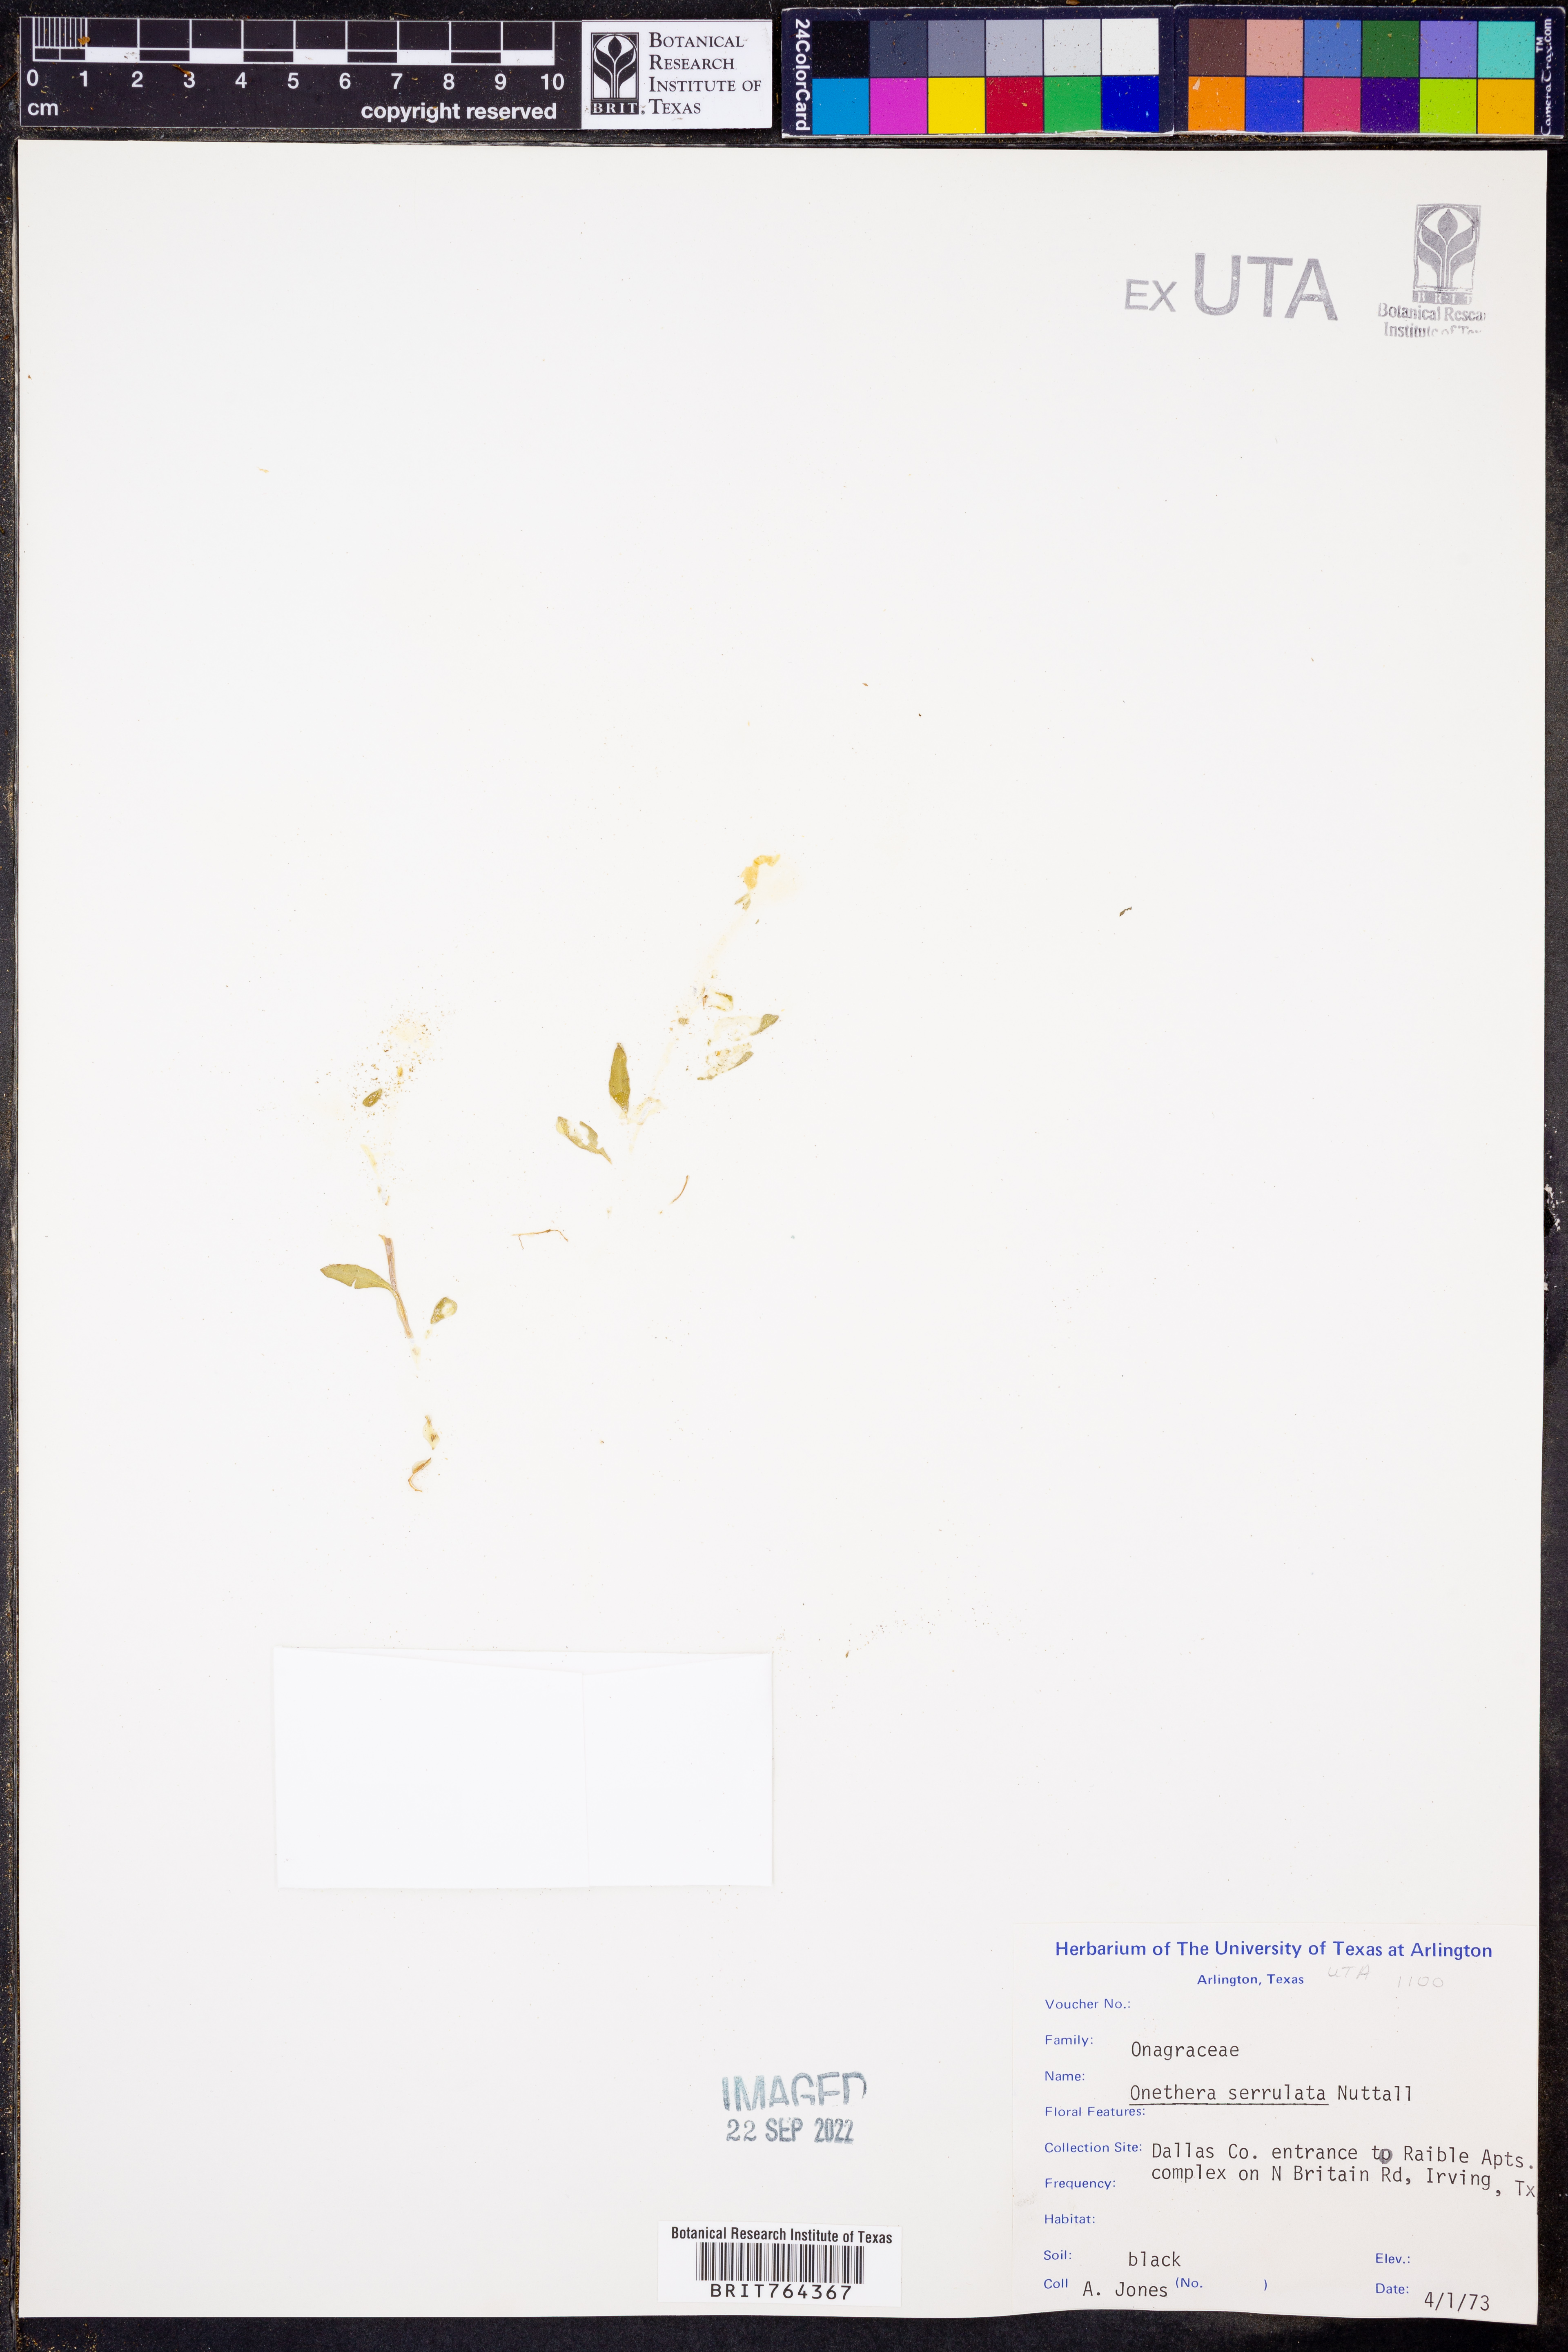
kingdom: Plantae
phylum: Tracheophyta
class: Magnoliopsida
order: Myrtales
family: Onagraceae
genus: Oenothera
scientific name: Oenothera serrulata
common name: Half-shrub calylophus
